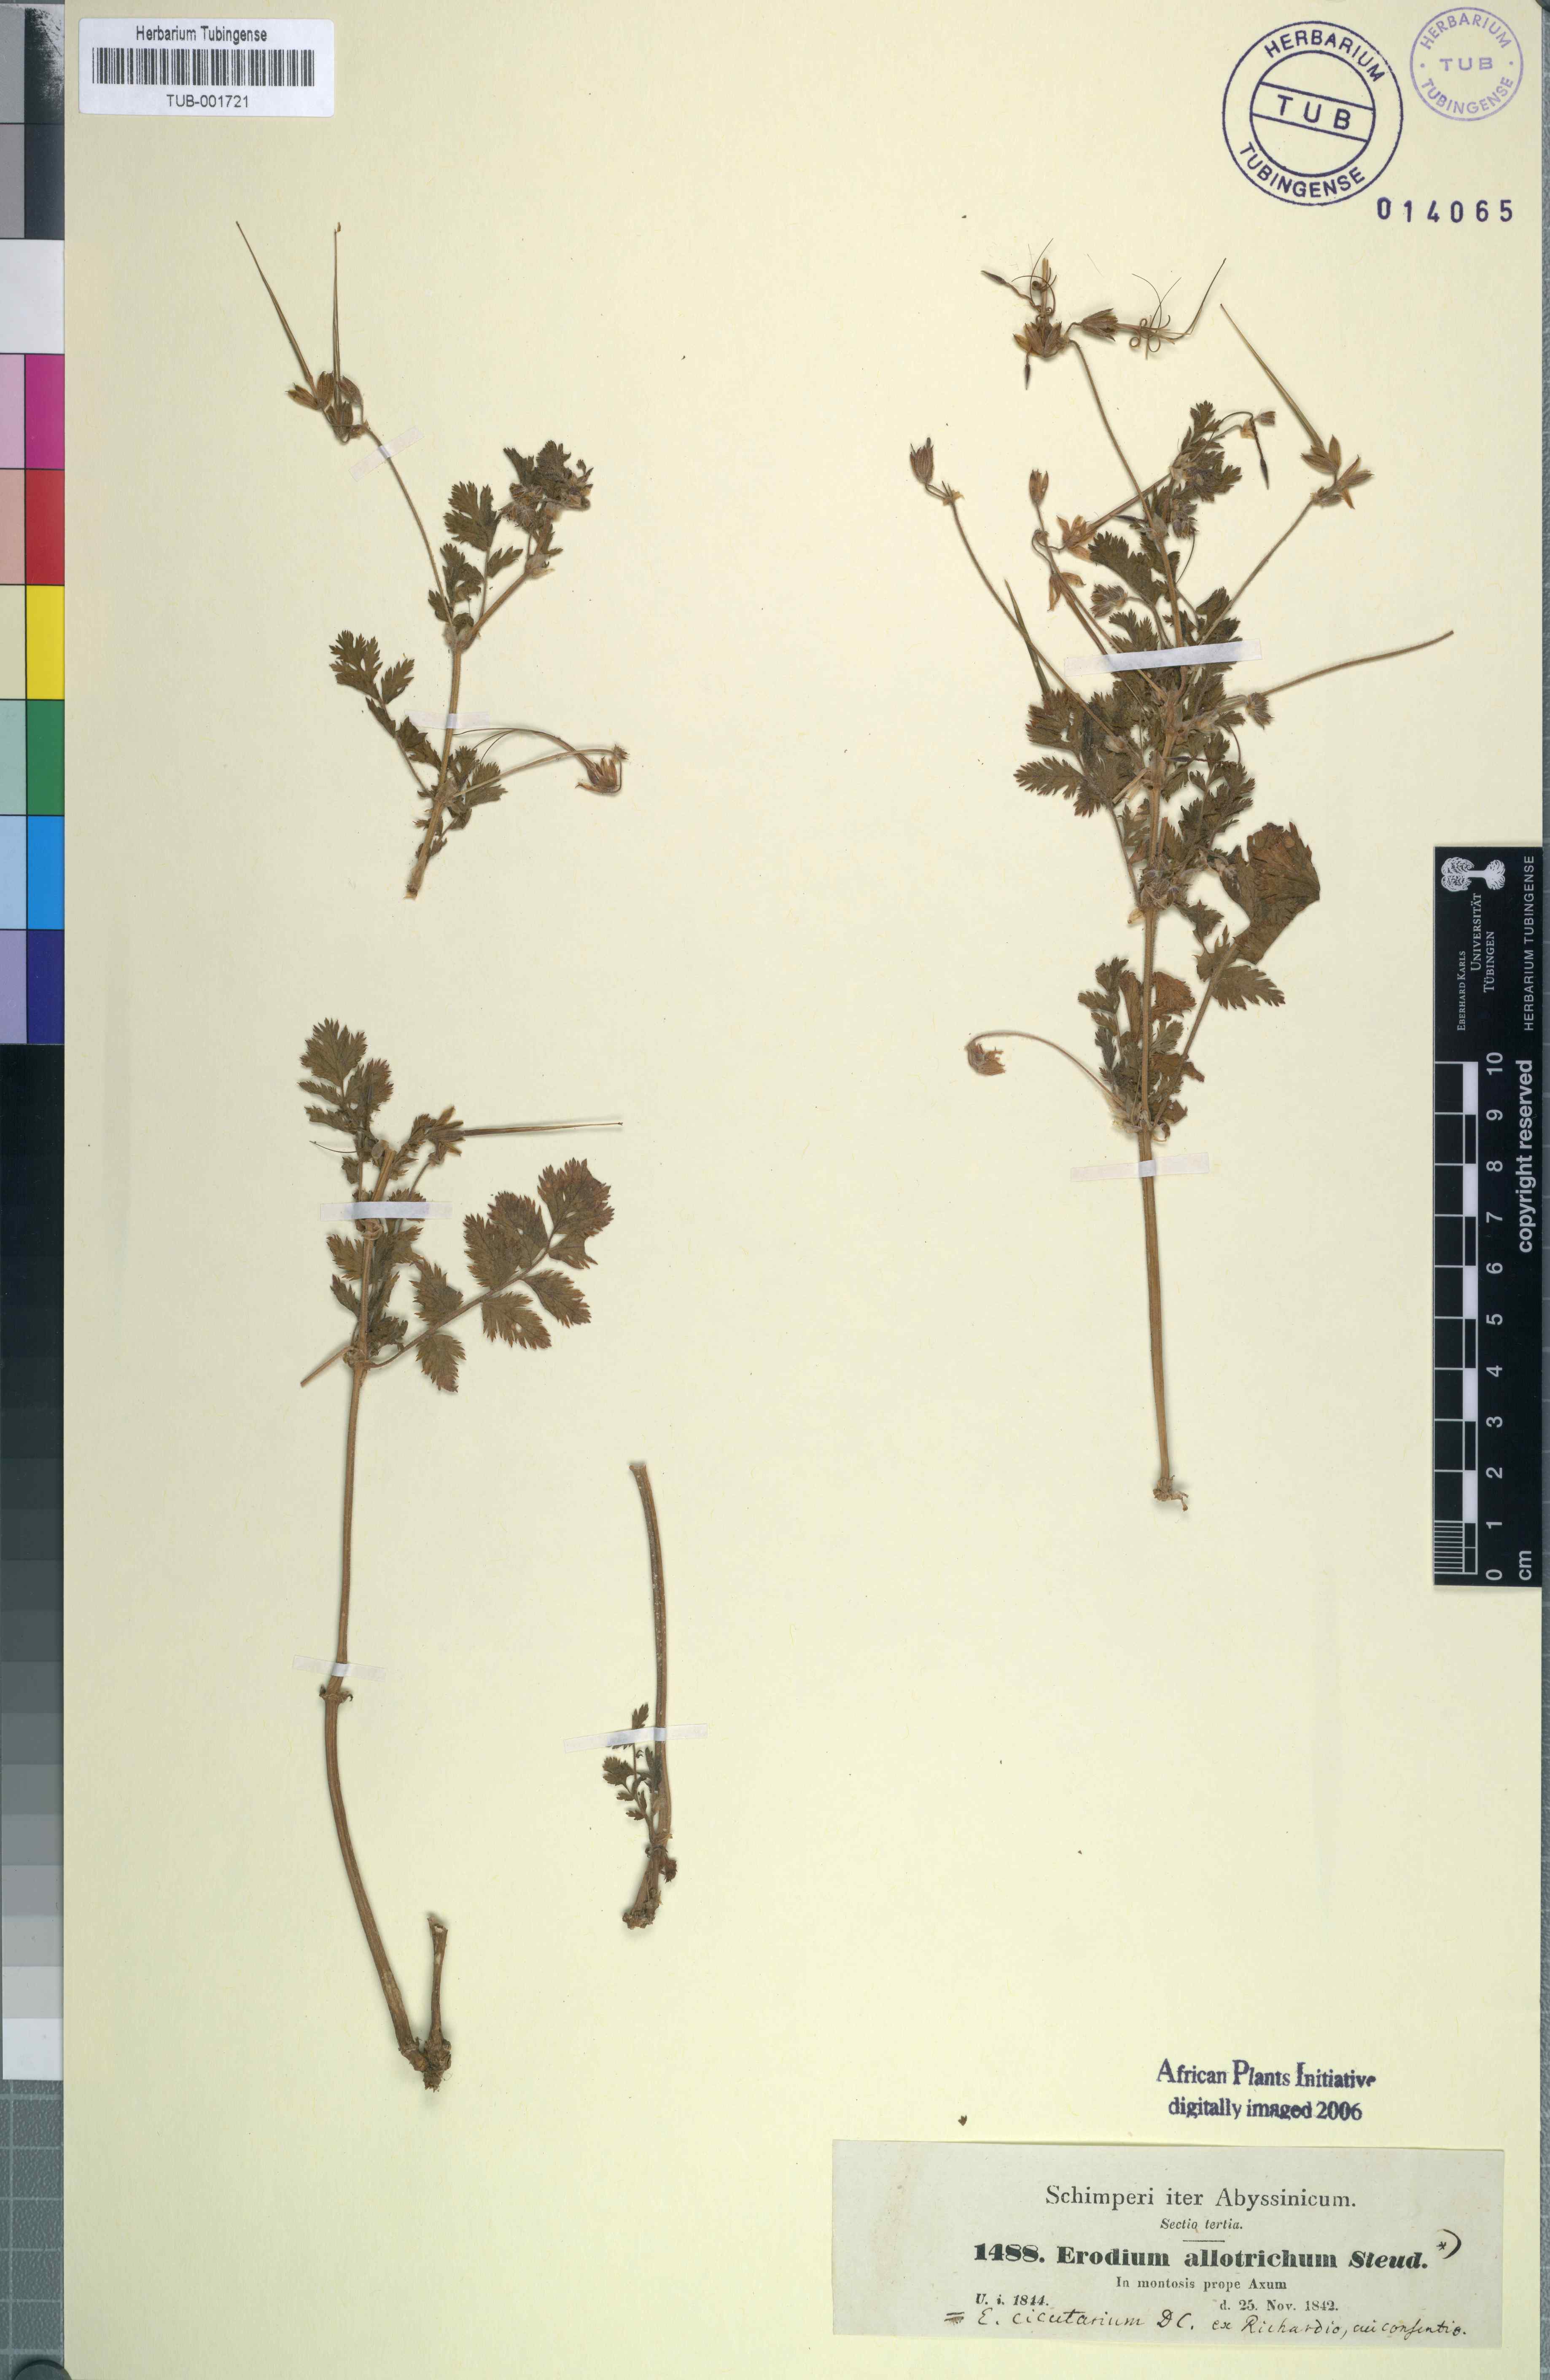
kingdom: Plantae
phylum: Tracheophyta
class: Magnoliopsida
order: Geraniales
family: Geraniaceae
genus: Erodium
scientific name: Erodium cicutarium
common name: Common stork's-bill
